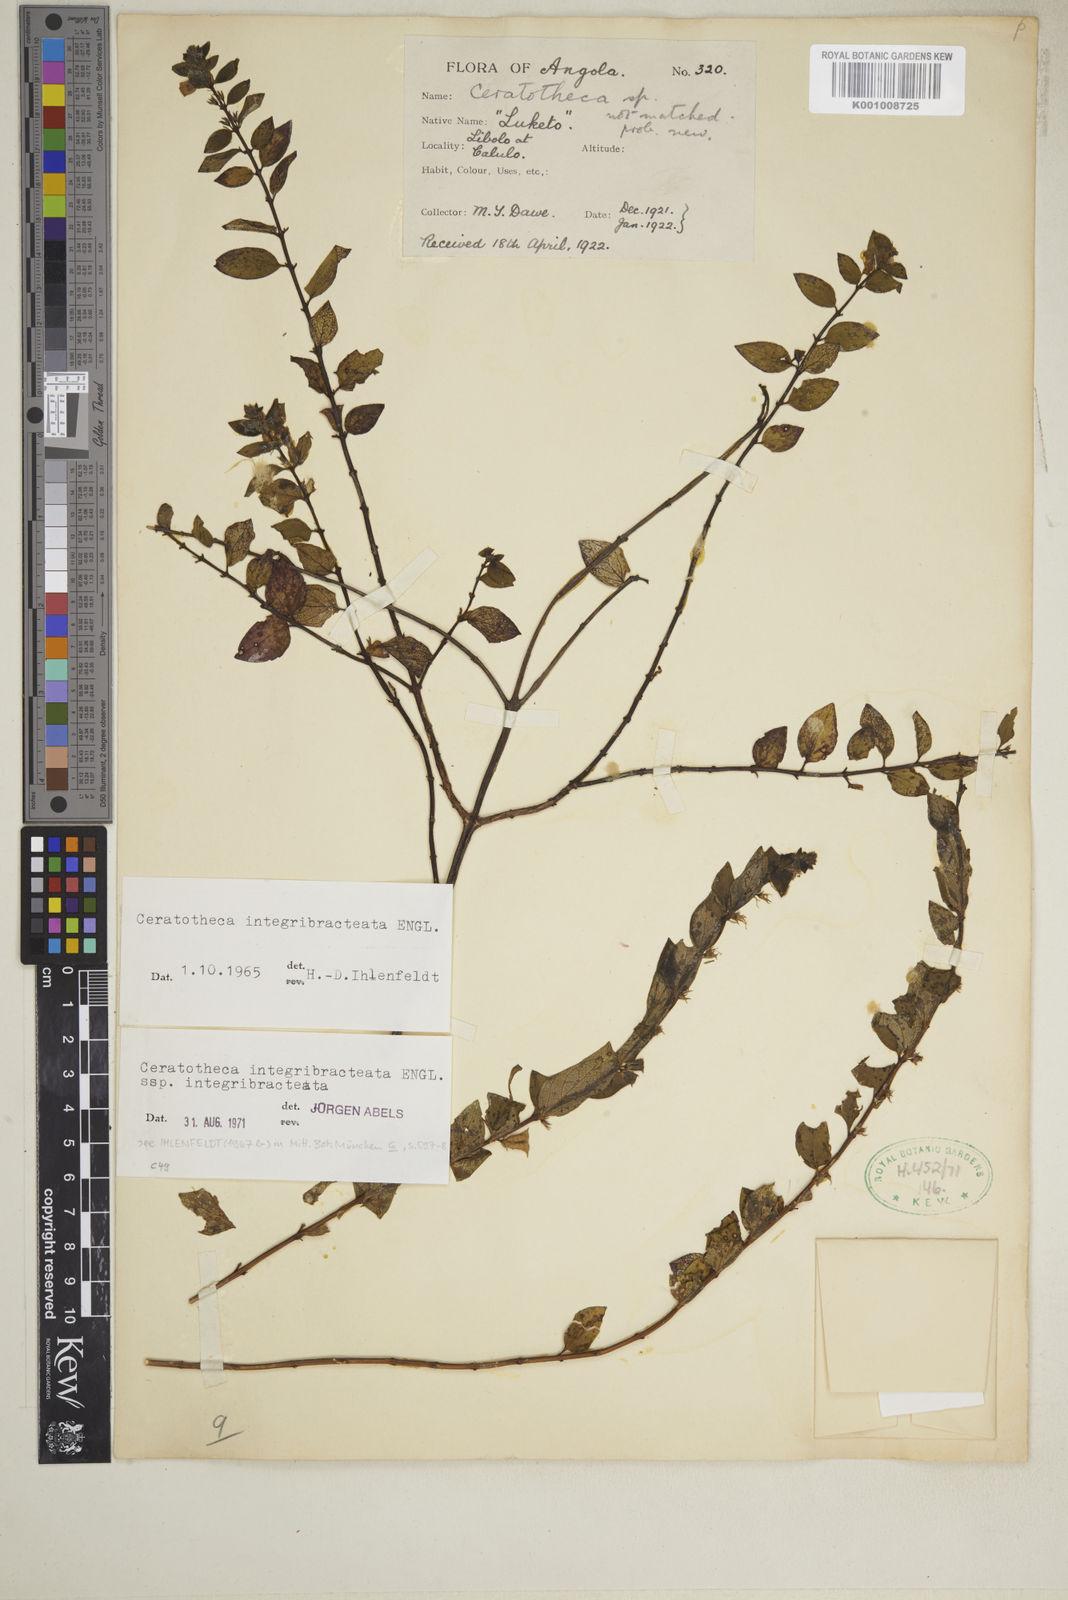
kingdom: Plantae
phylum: Tracheophyta
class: Magnoliopsida
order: Lamiales
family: Pedaliaceae
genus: Sesamum
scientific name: Sesamum integribracteatum
